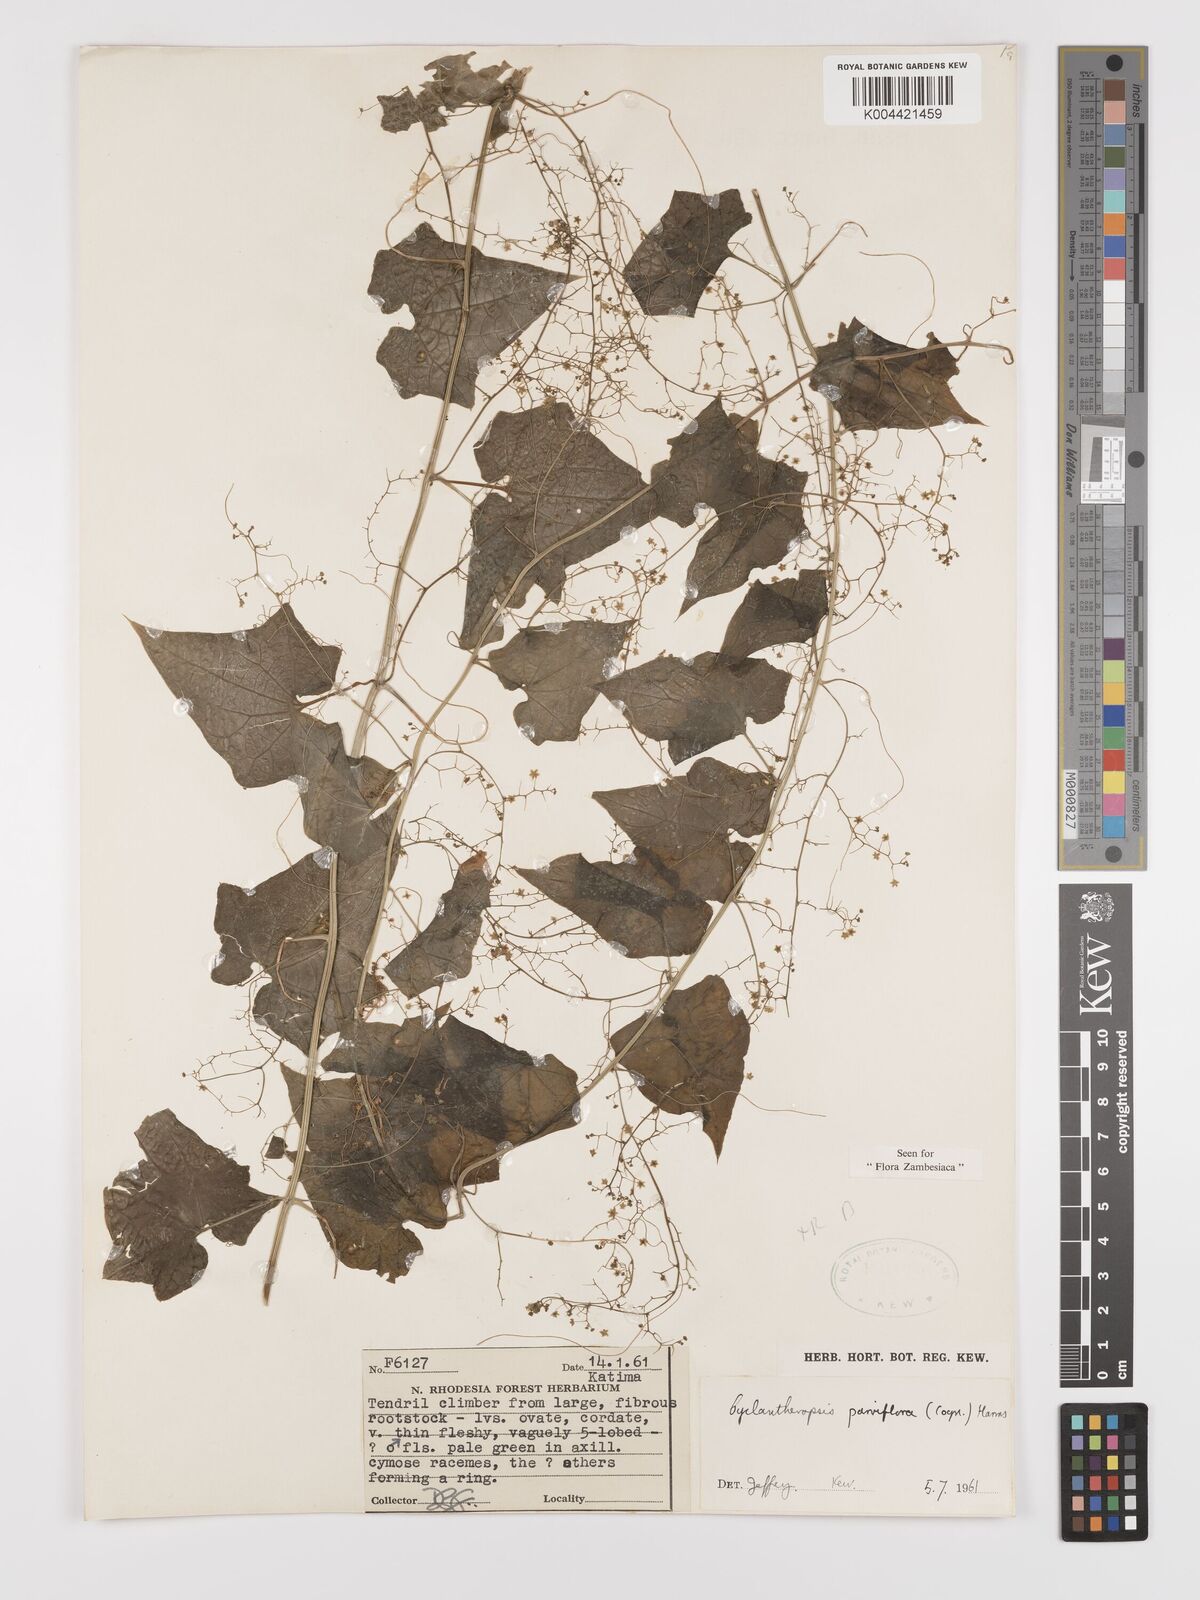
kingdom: Plantae
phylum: Tracheophyta
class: Magnoliopsida
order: Cucurbitales
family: Cucurbitaceae
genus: Cyclantheropsis
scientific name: Cyclantheropsis parviflora
